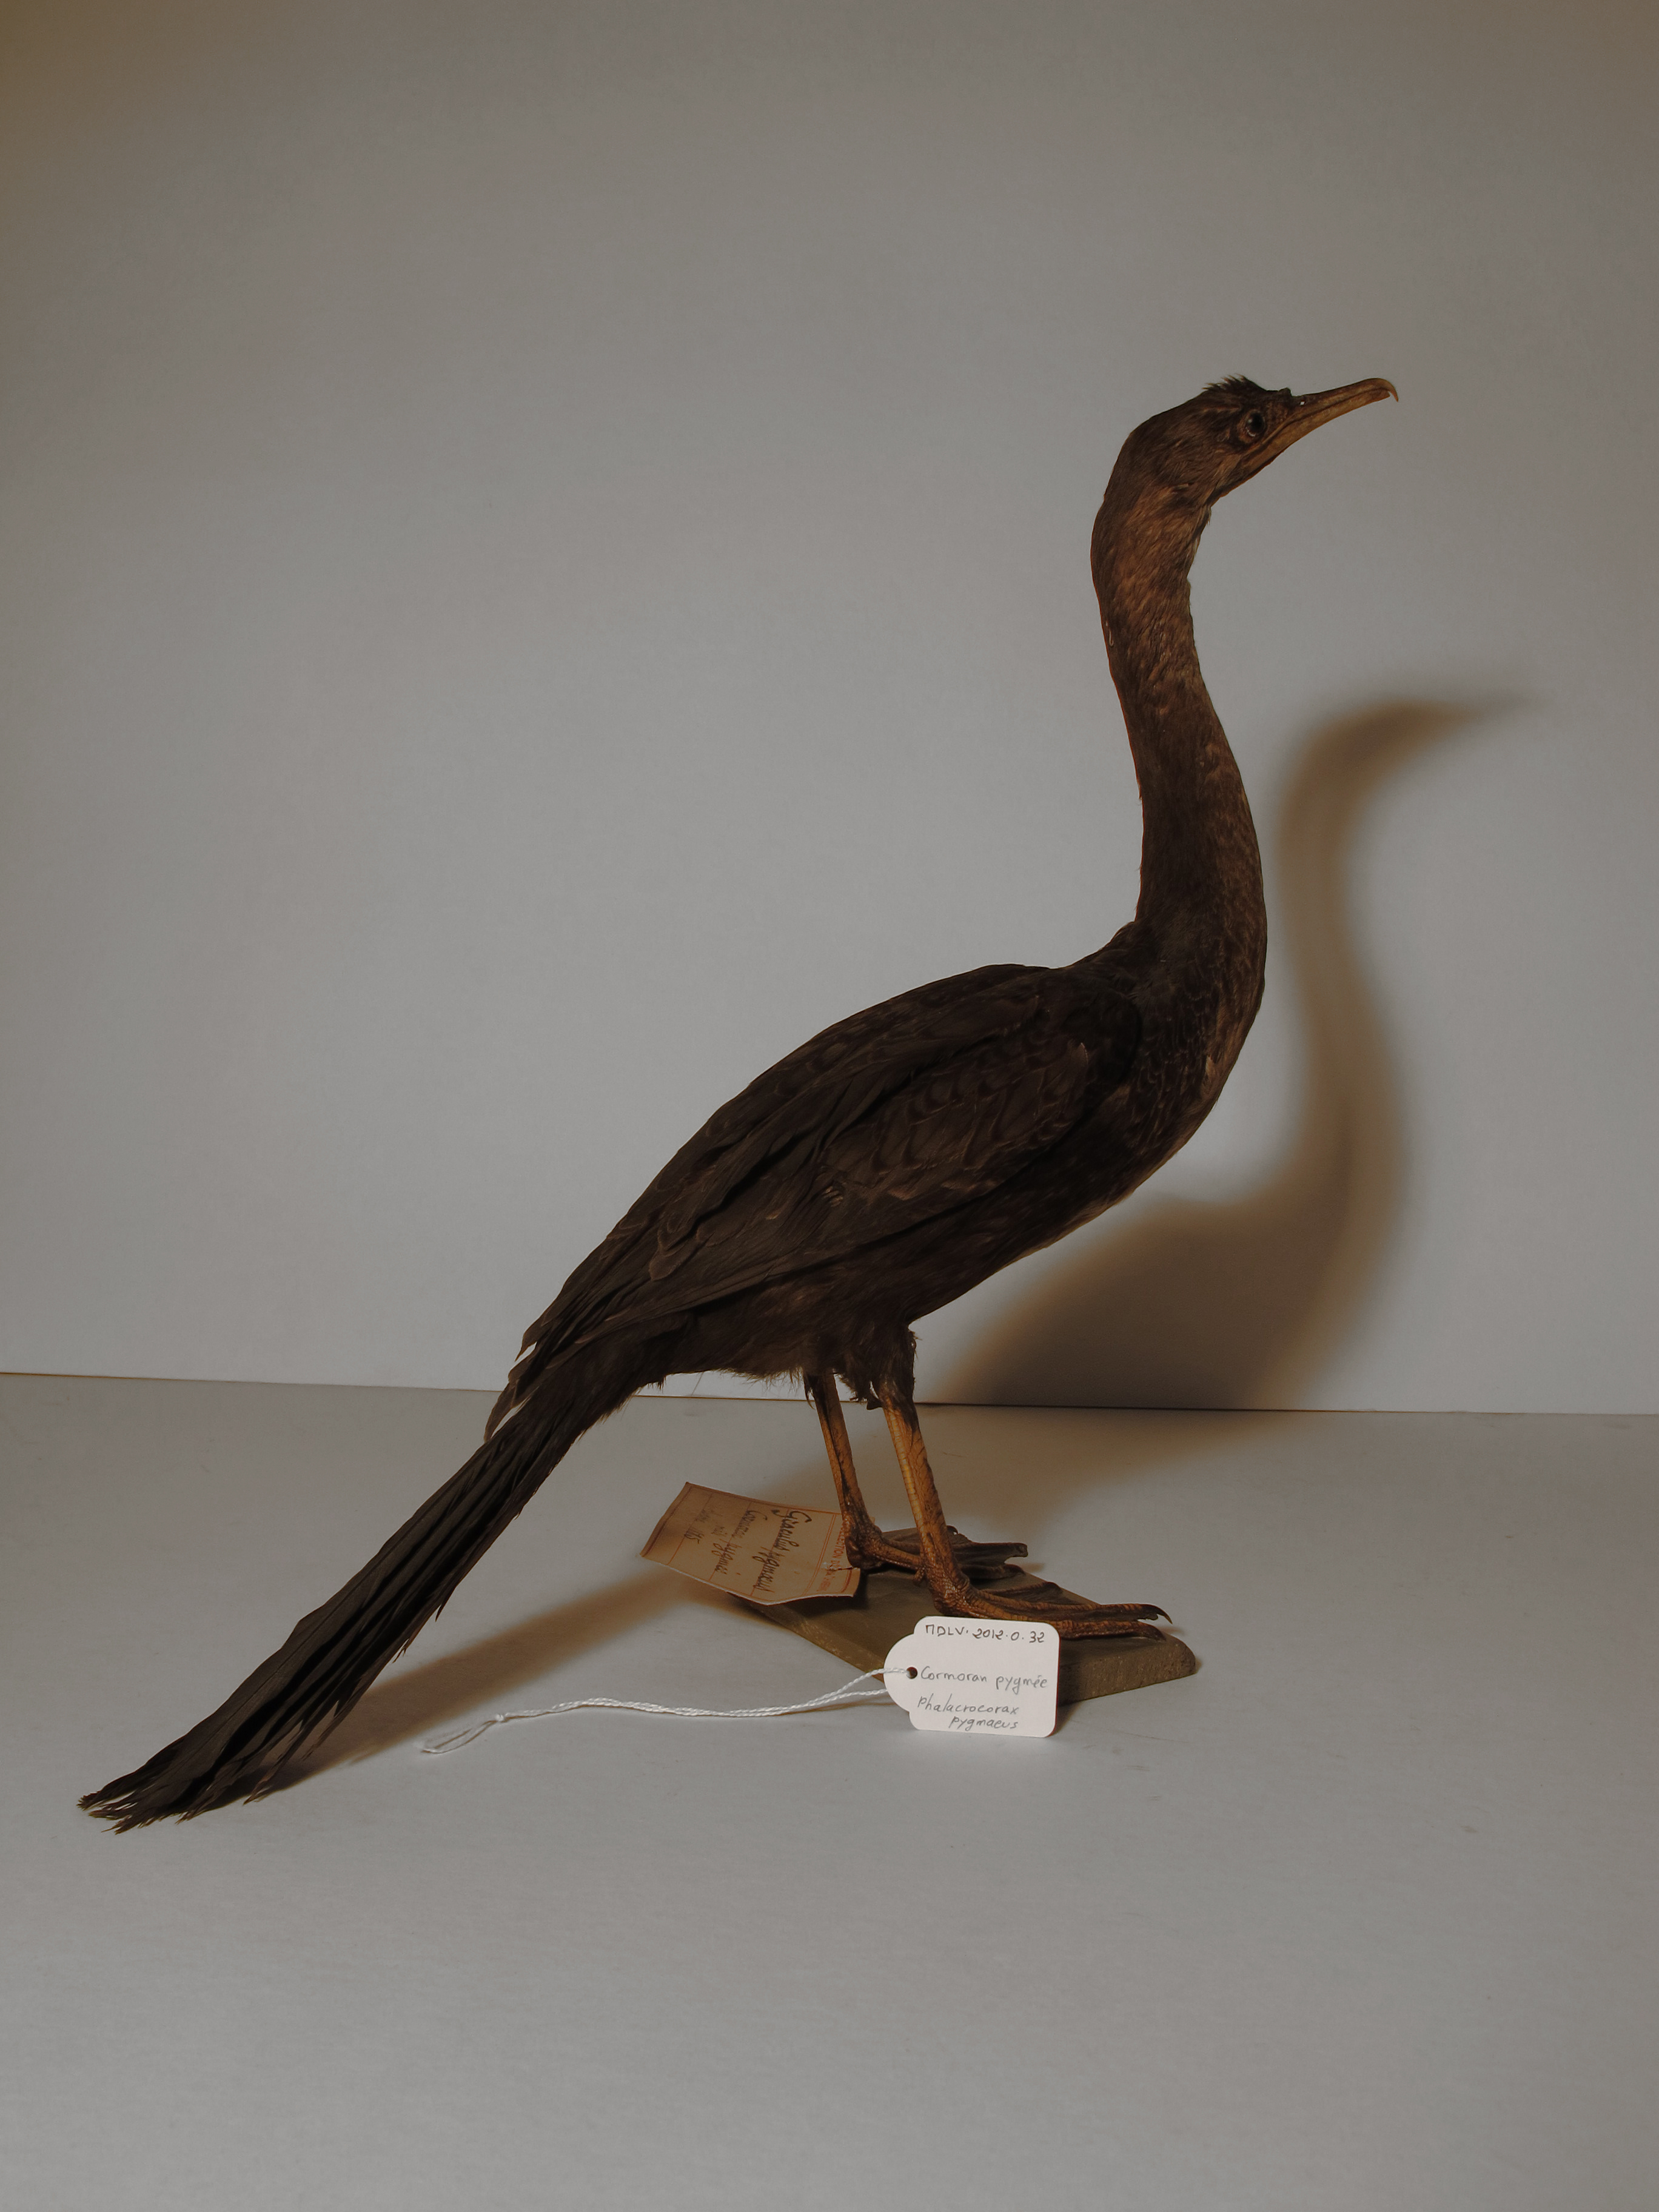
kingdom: Animalia
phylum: Chordata
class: Aves
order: Suliformes
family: Phalacrocoracidae
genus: Microcarbo
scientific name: Microcarbo pygmaeus
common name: Pygmy Cormorant
